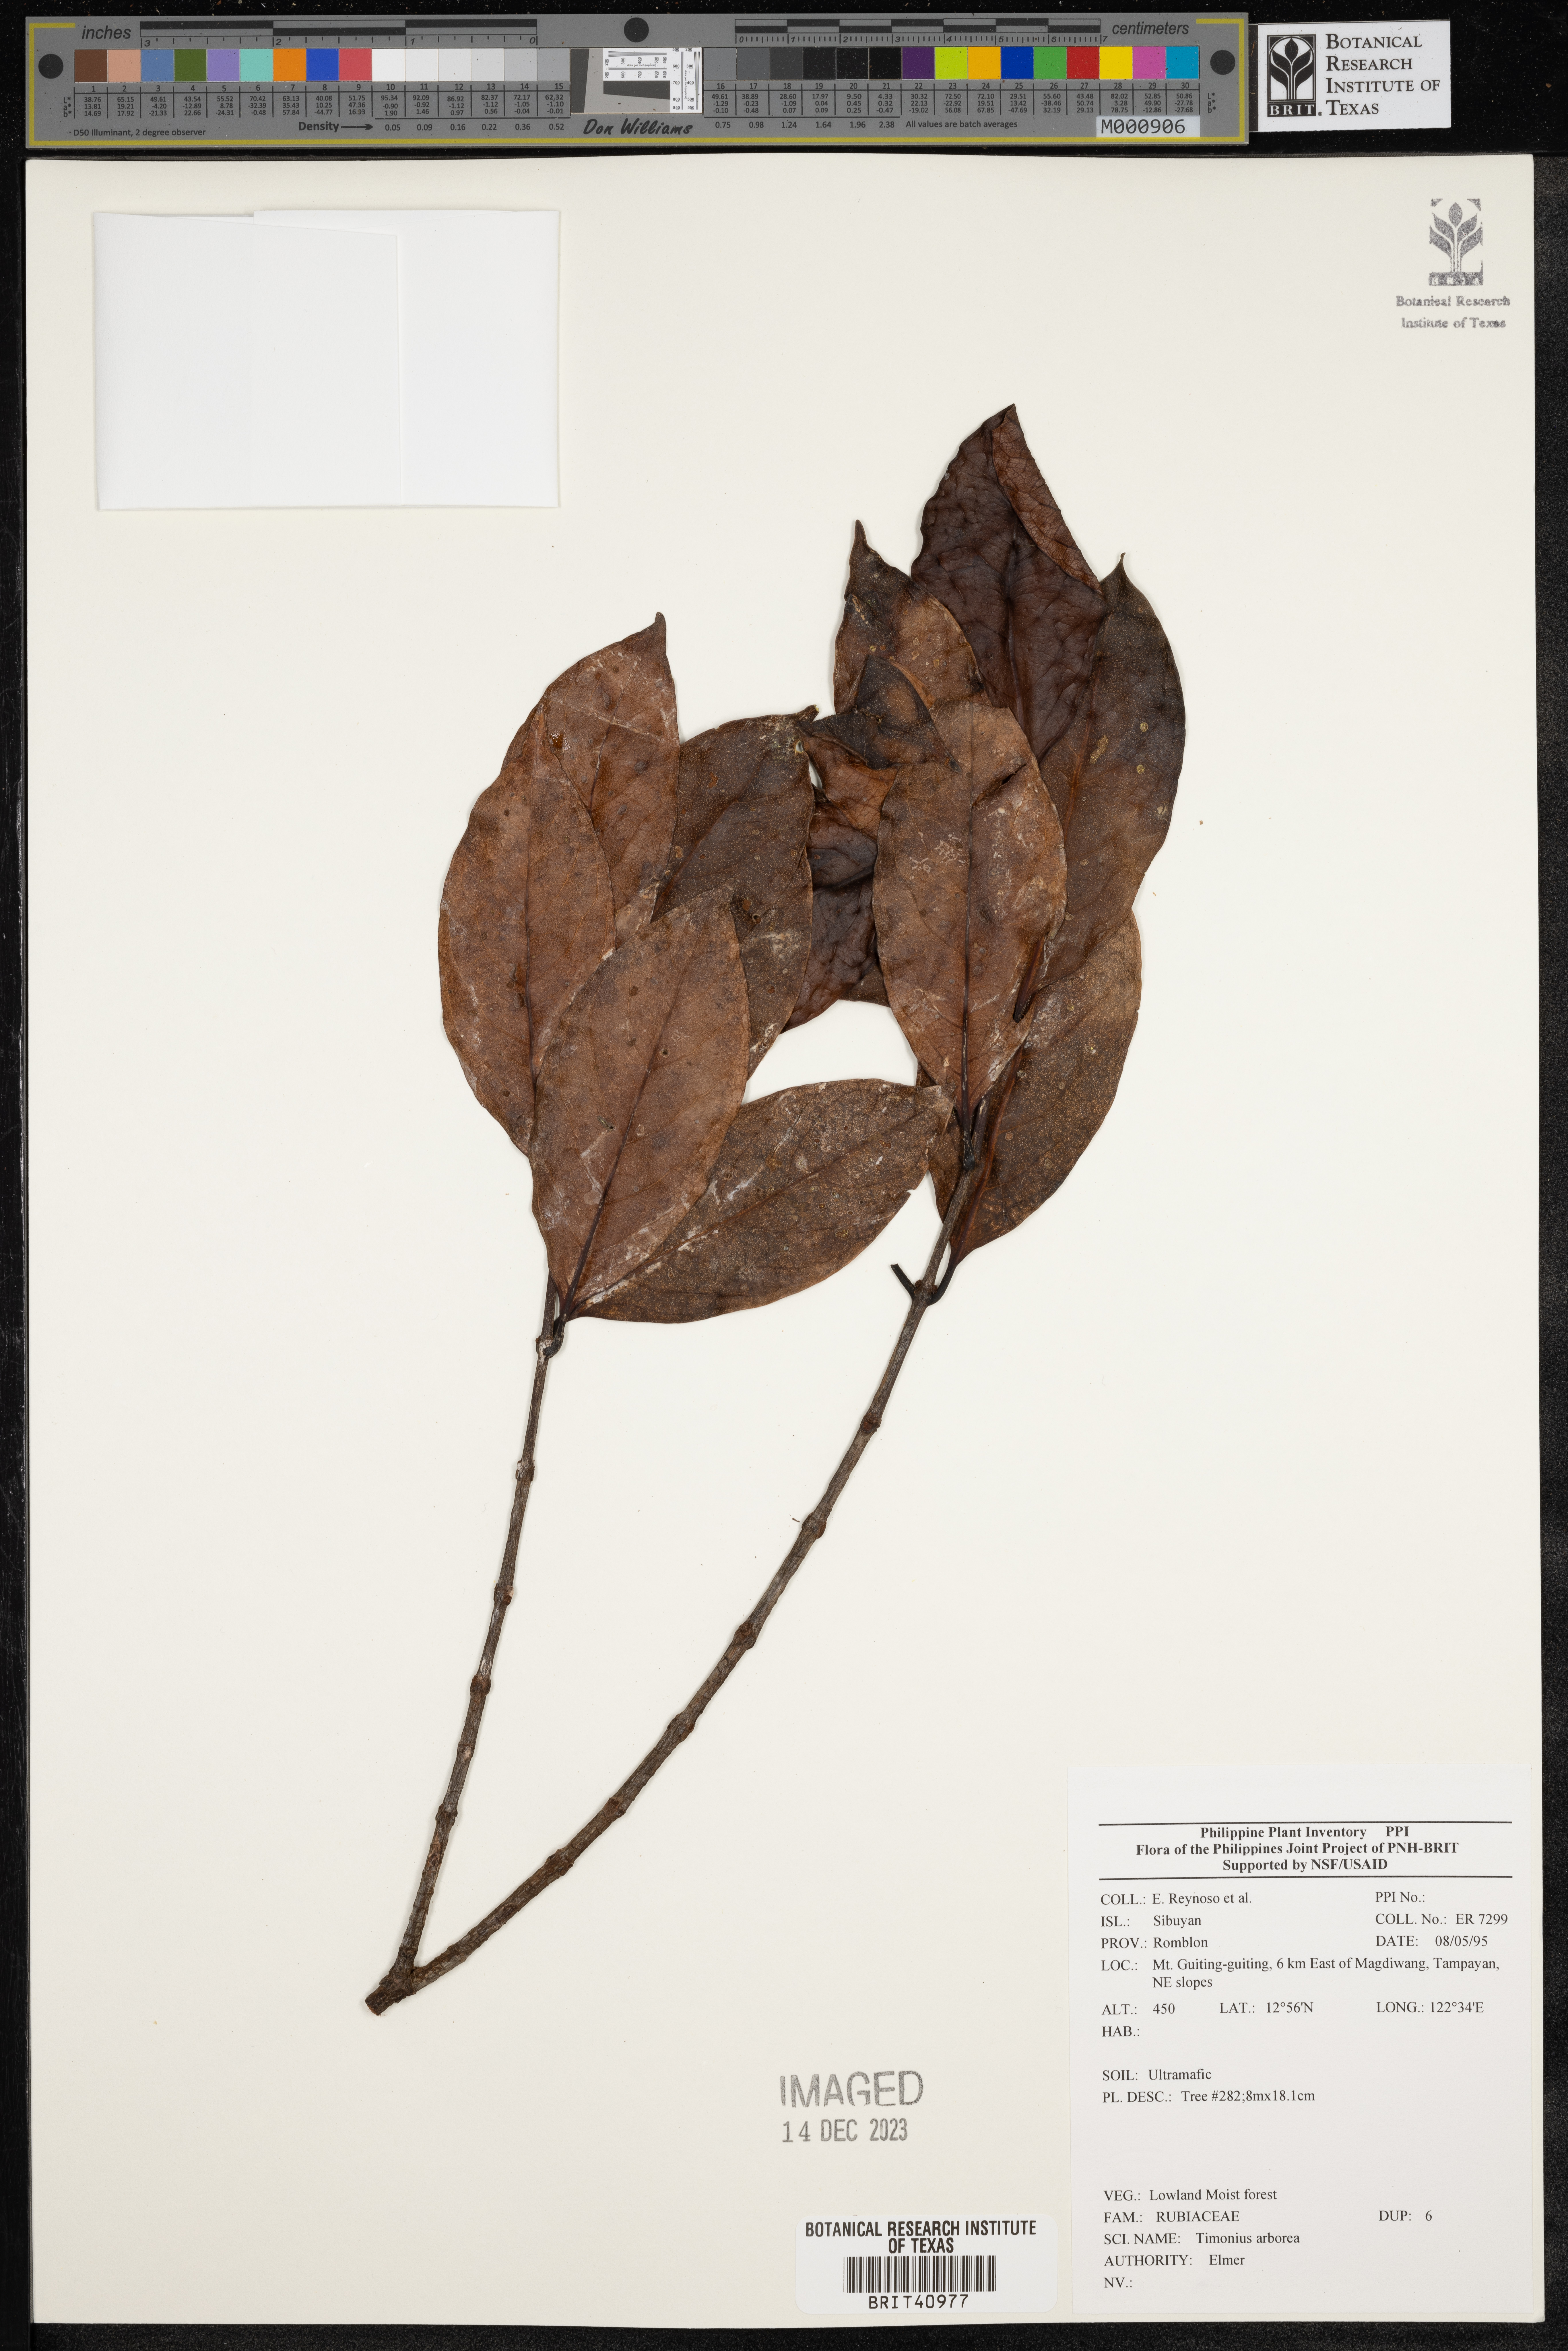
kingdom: Plantae
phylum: Tracheophyta
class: Magnoliopsida
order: Gentianales
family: Rubiaceae
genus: Timonius
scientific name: Timonius
